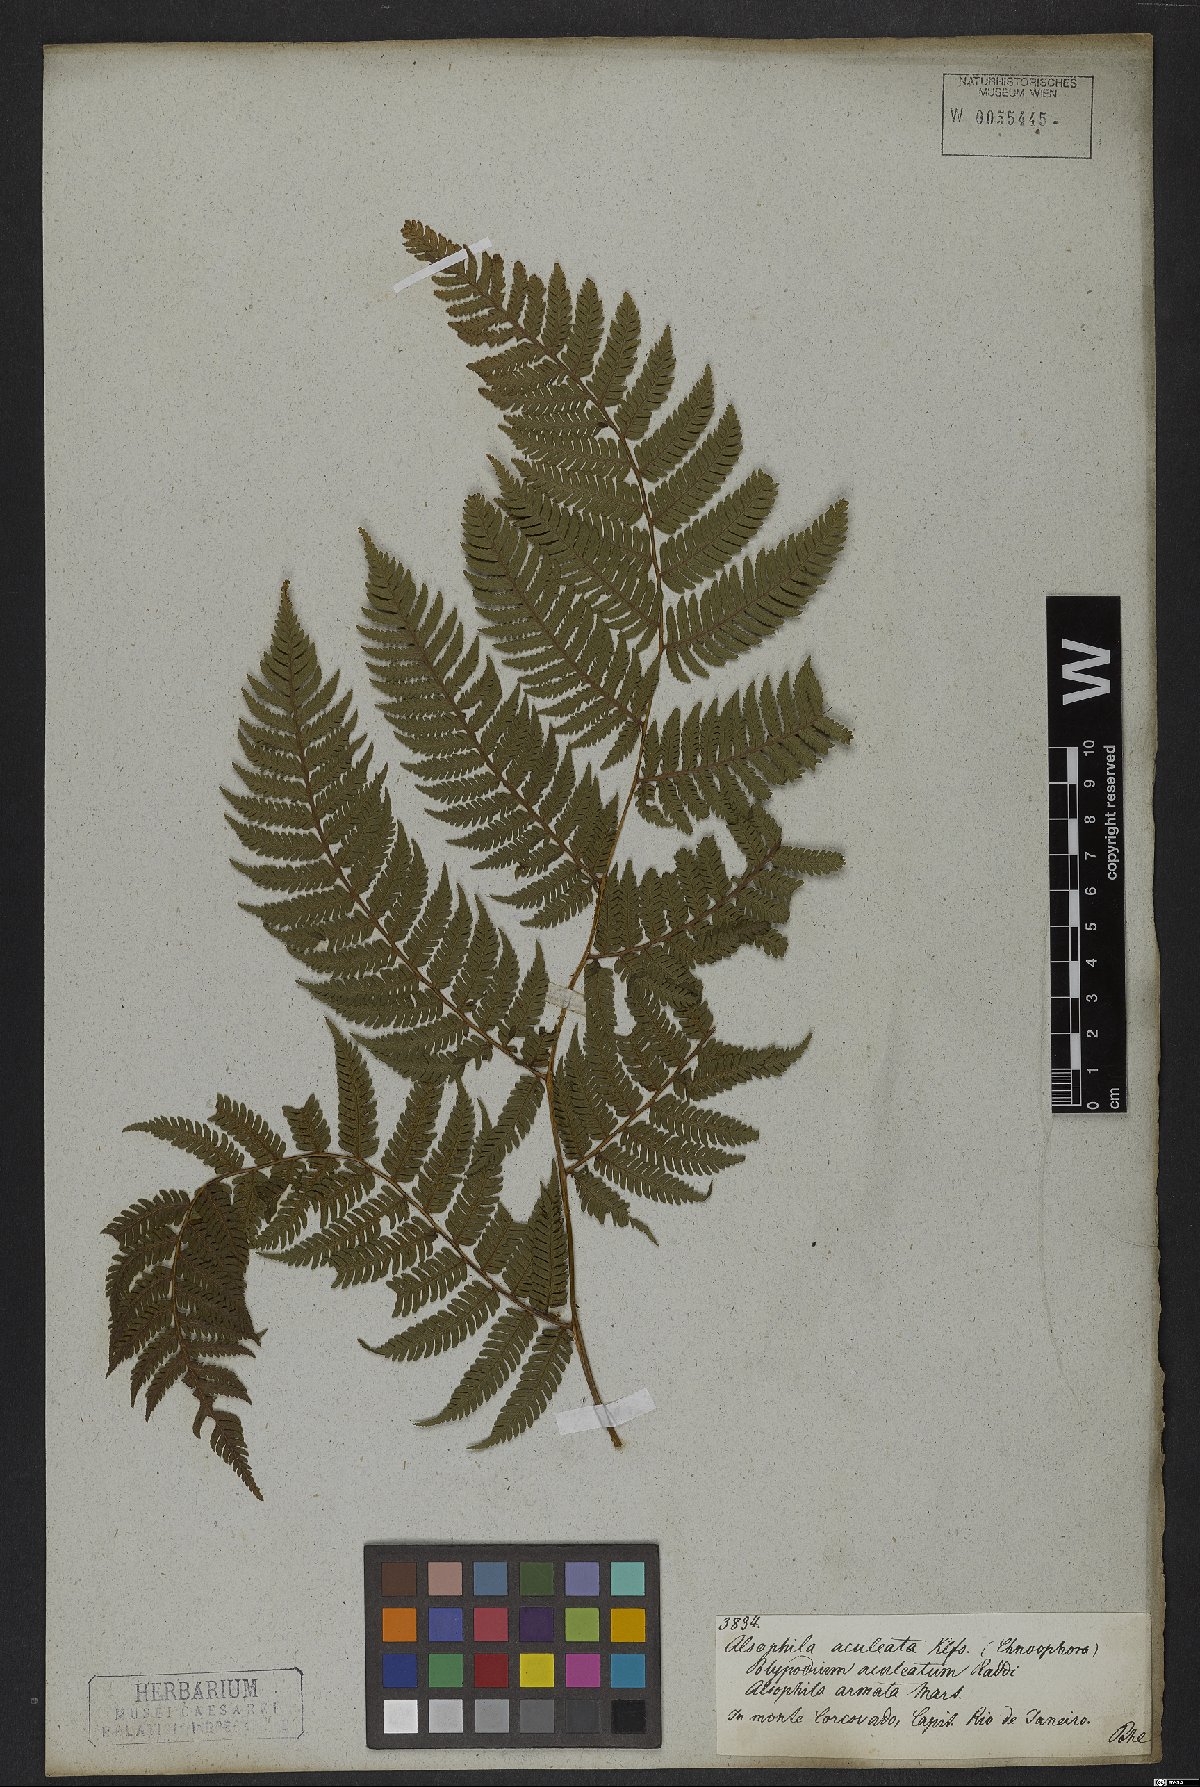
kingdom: Plantae
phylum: Tracheophyta
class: Polypodiopsida
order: Cyatheales
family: Cyatheaceae
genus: Cyathea
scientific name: Cyathea microdonta
